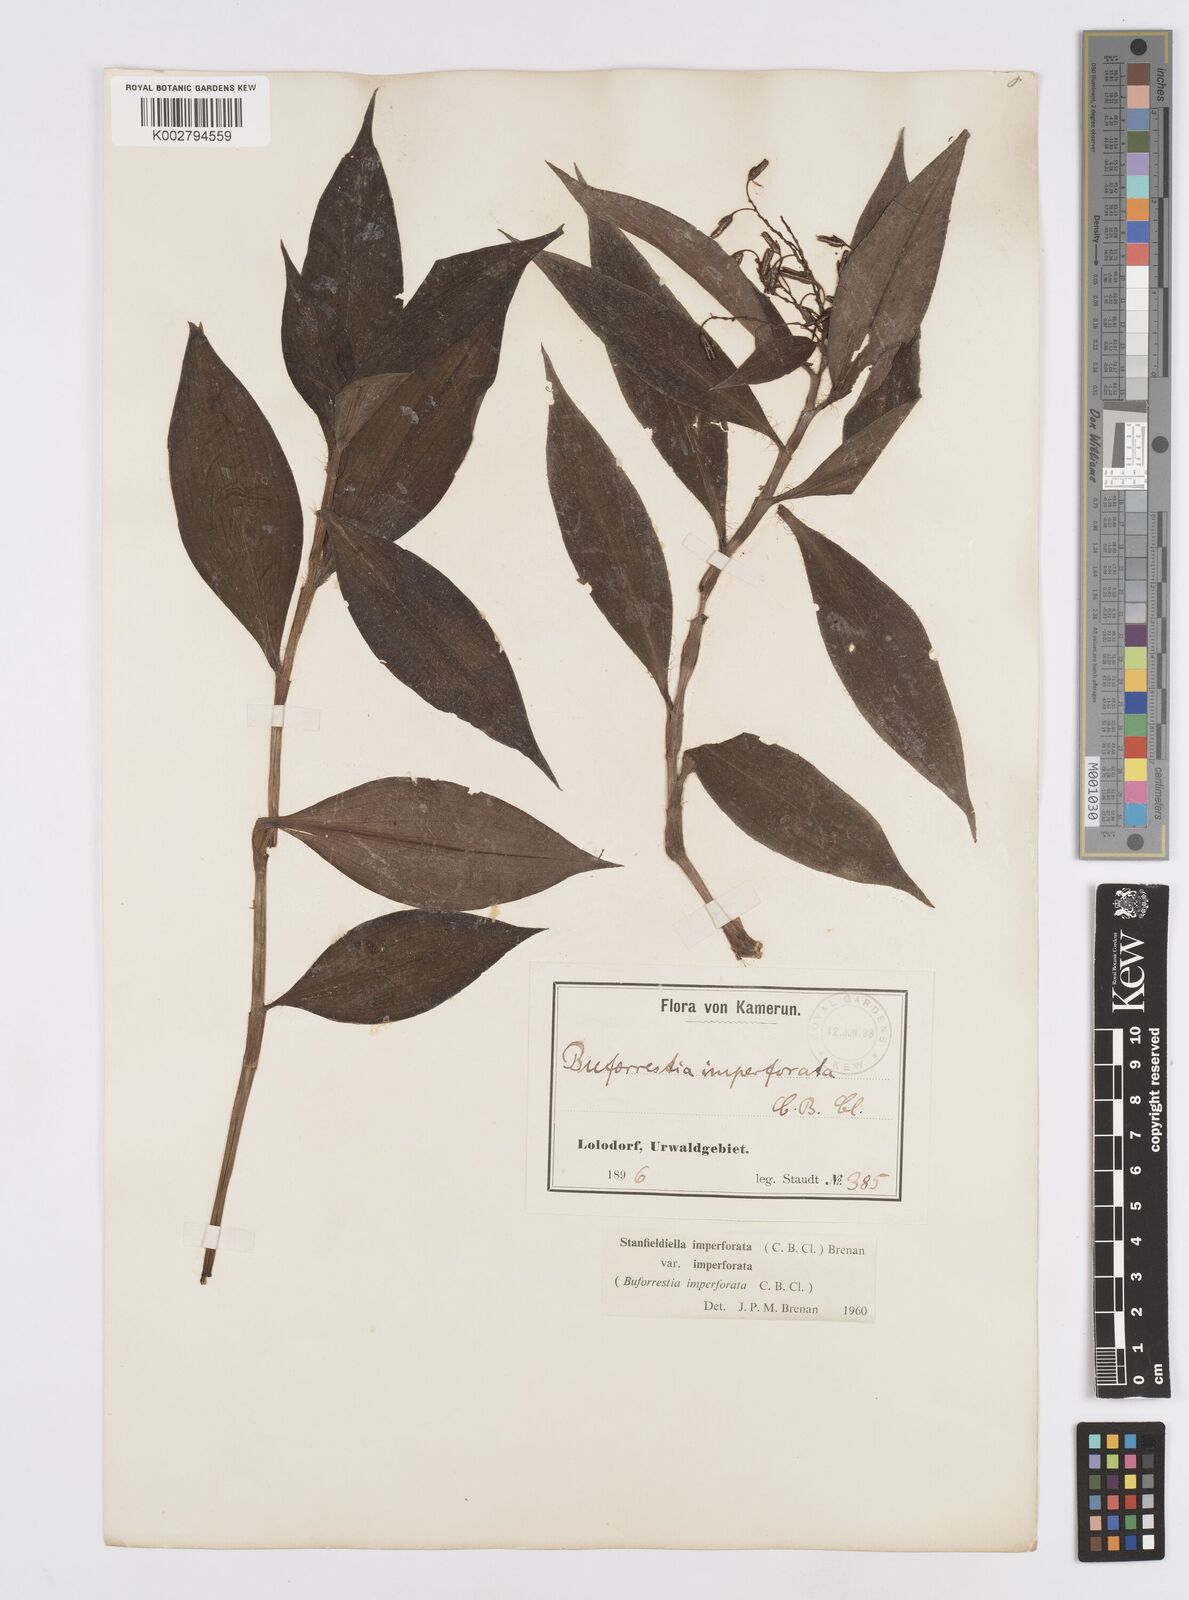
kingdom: Plantae
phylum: Tracheophyta
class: Liliopsida
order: Commelinales
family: Commelinaceae
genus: Stanfieldiella
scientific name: Stanfieldiella imperforata
